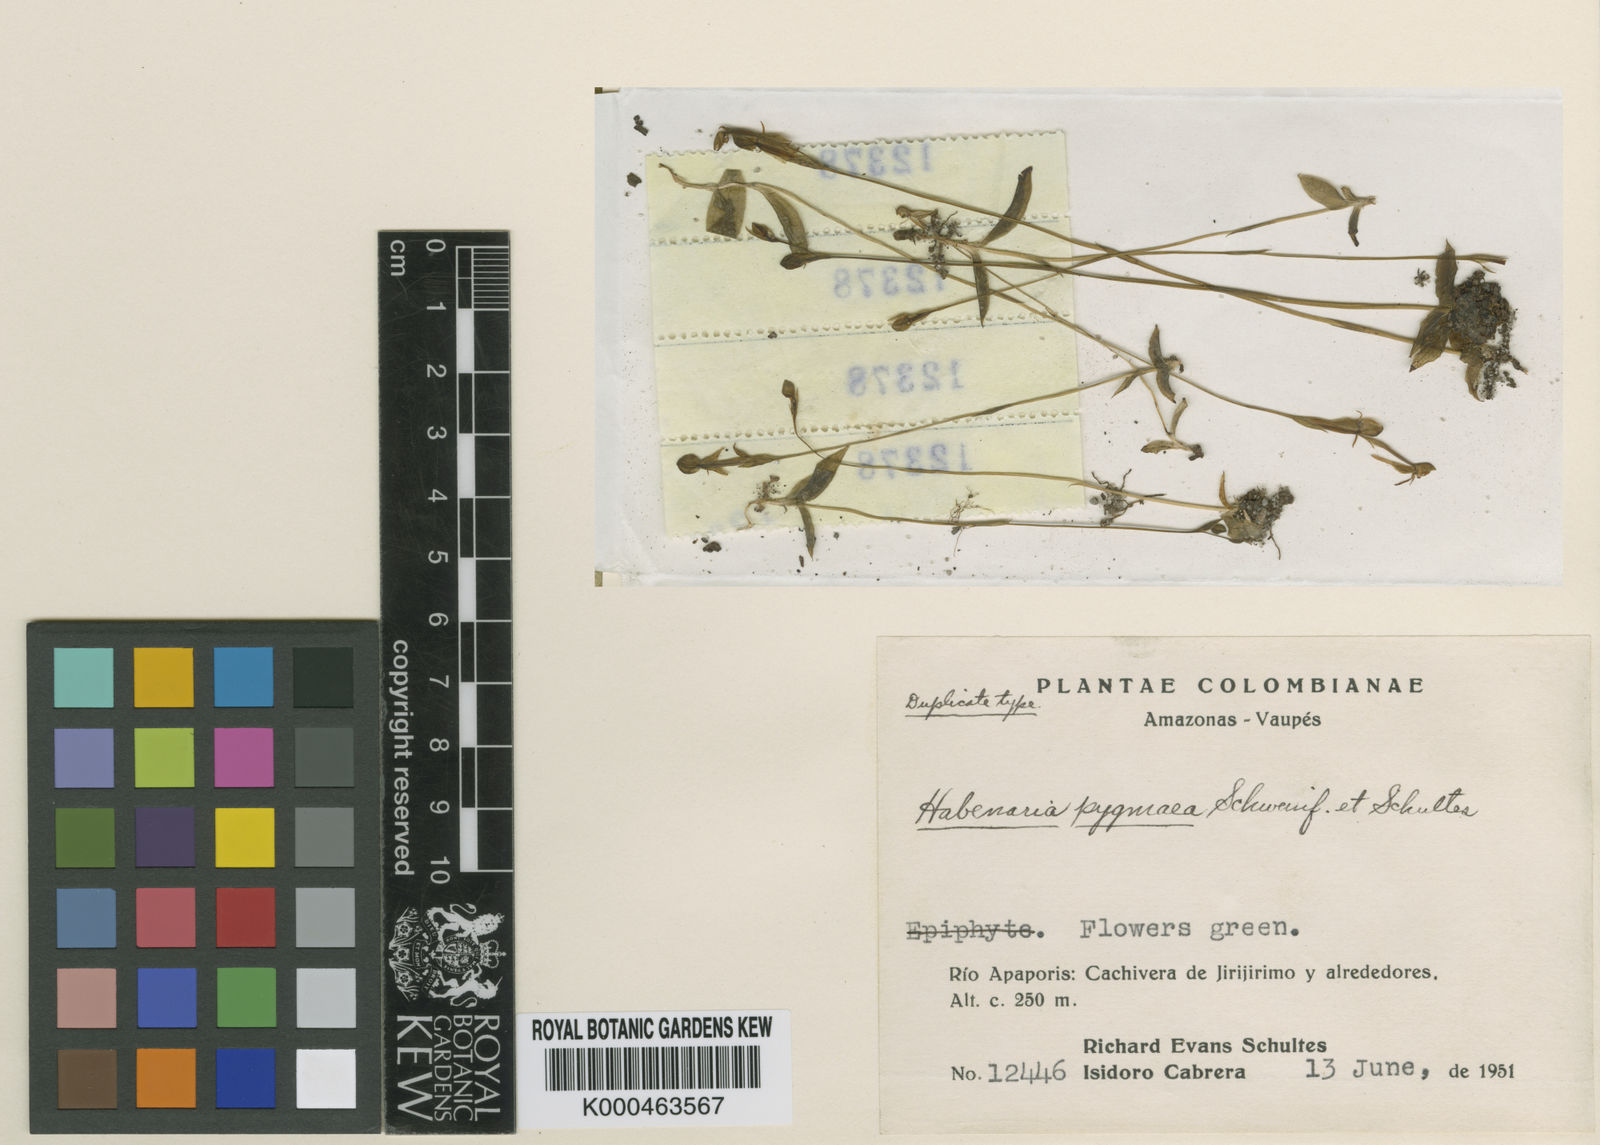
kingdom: Plantae
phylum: Tracheophyta
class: Liliopsida
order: Asparagales
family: Orchidaceae
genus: Habenaria
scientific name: Habenaria pygmaea
